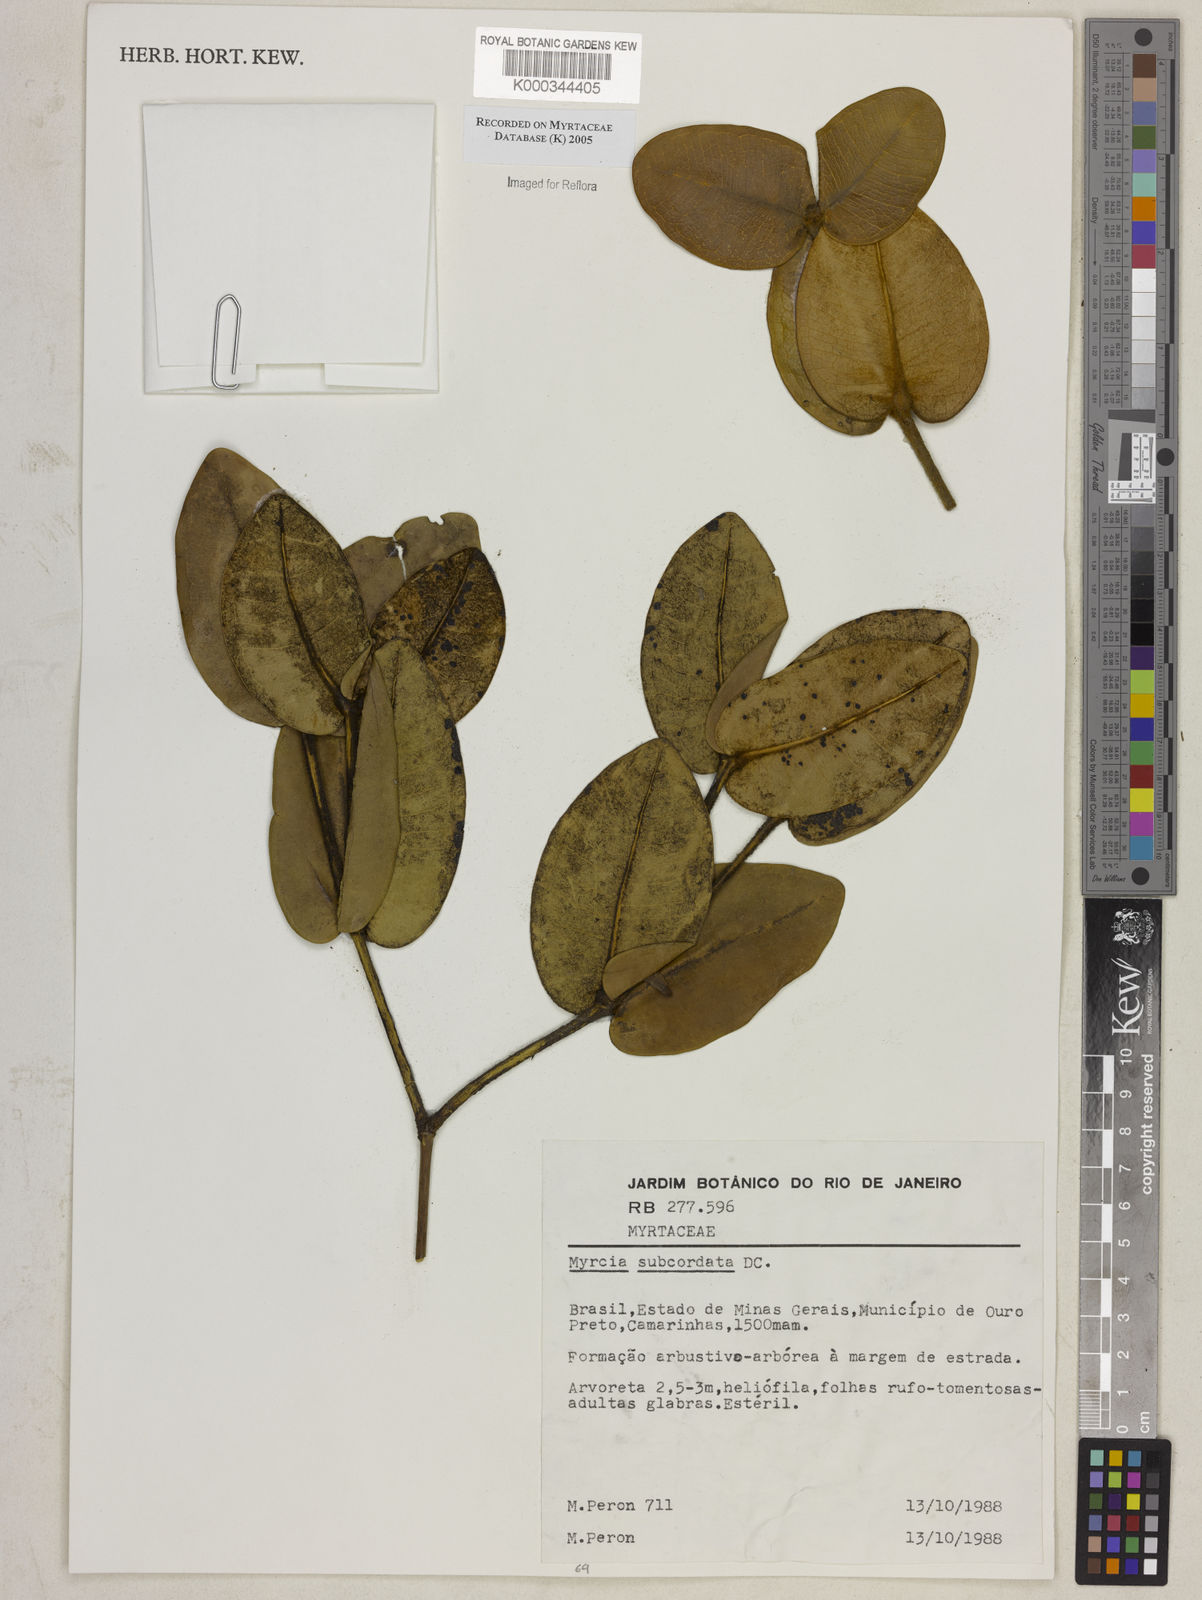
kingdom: Plantae
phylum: Tracheophyta
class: Magnoliopsida
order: Myrtales
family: Myrtaceae
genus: Myrcia
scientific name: Myrcia subcordata
